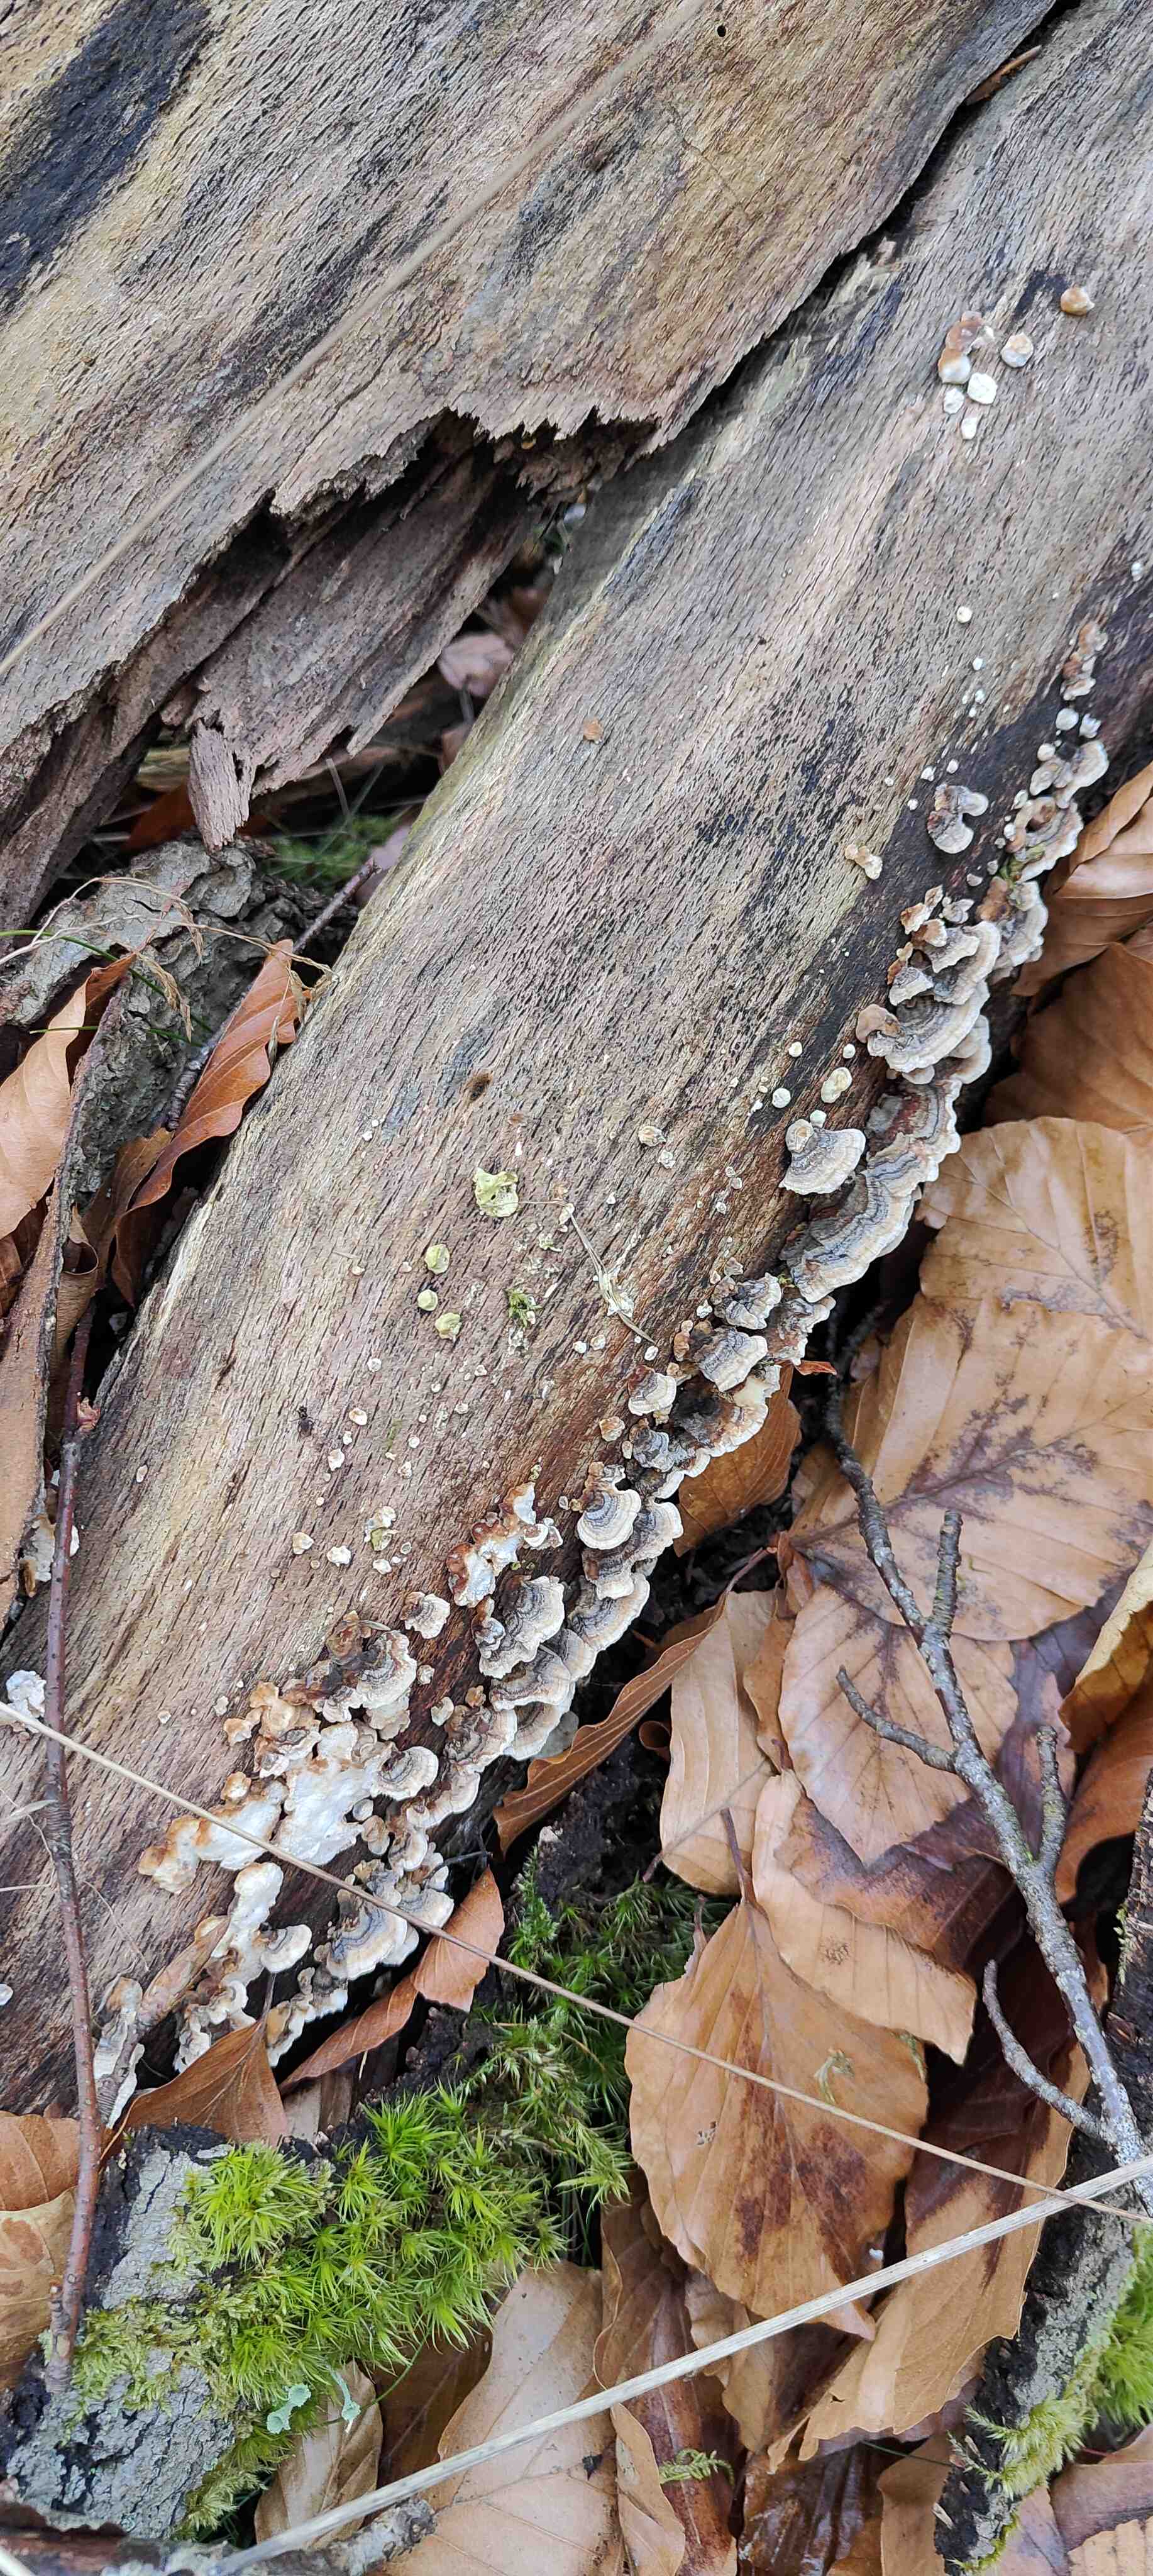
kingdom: Fungi
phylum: Basidiomycota
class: Agaricomycetes
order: Polyporales
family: Polyporaceae
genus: Trametes
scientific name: Trametes versicolor
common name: broget læderporesvamp
